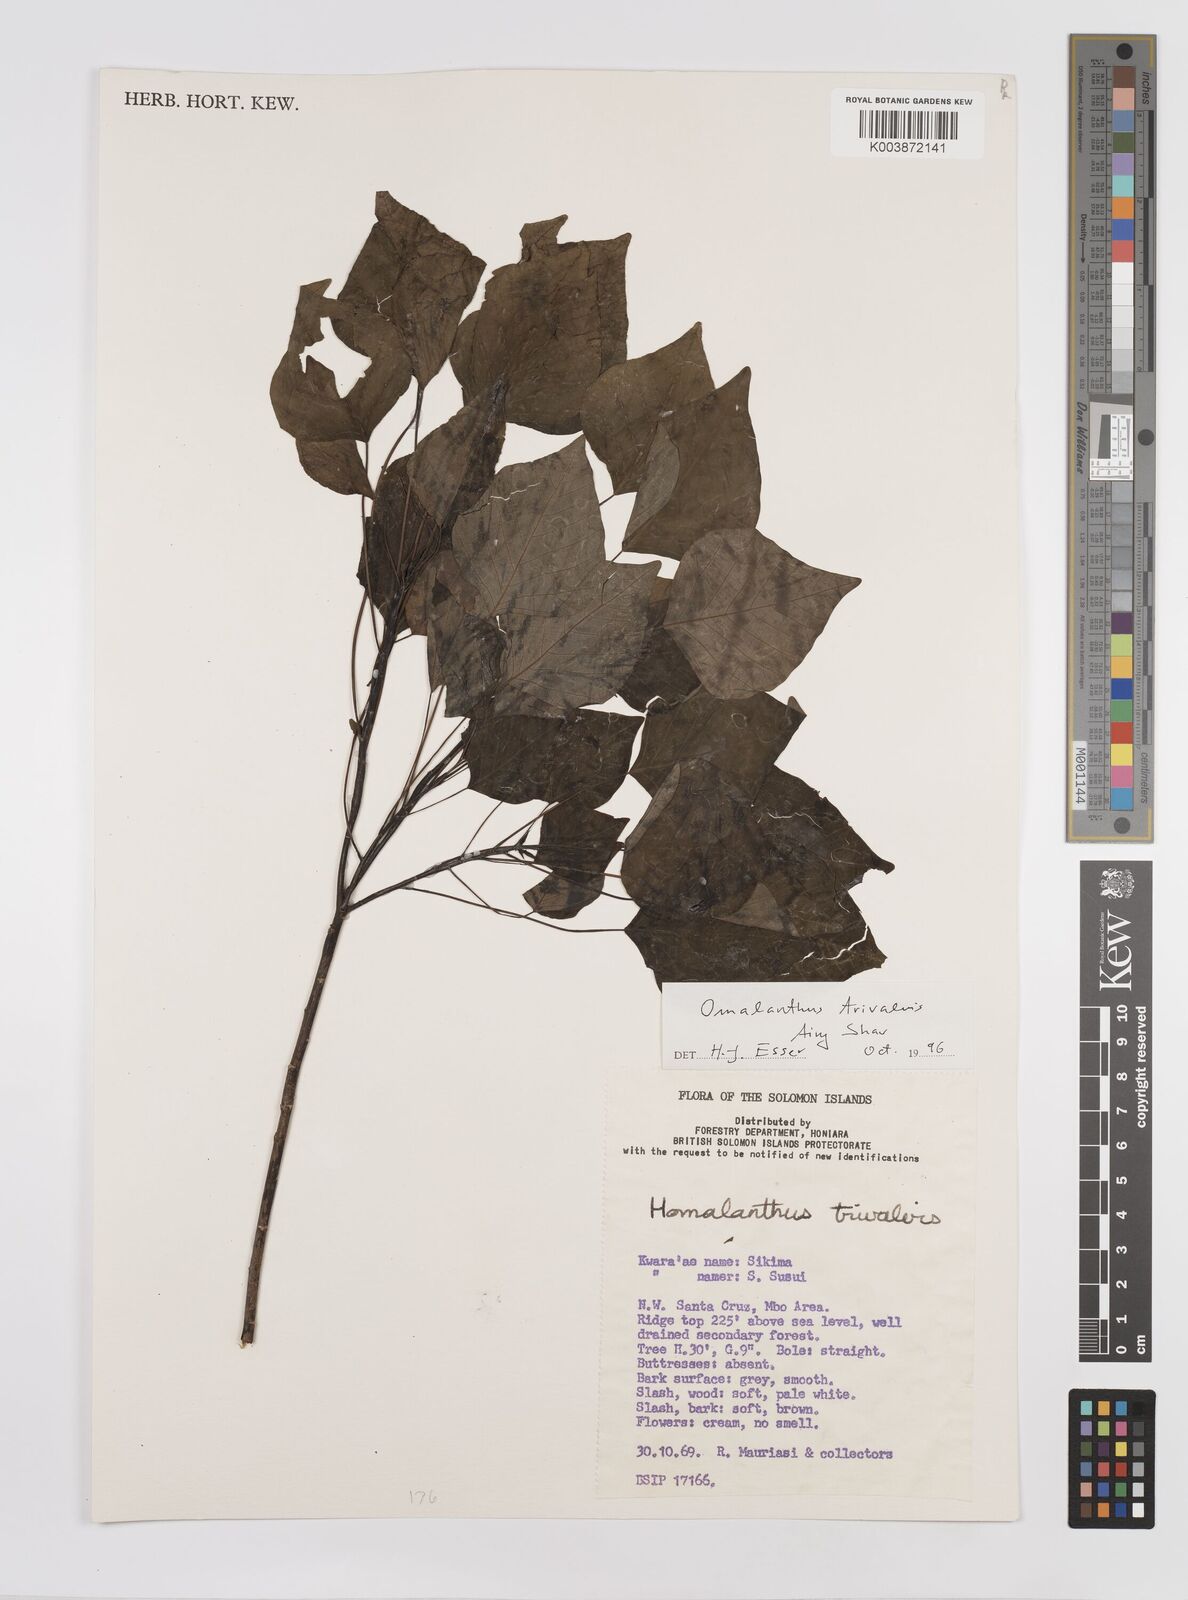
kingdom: Plantae
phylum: Tracheophyta
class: Magnoliopsida
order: Malpighiales
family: Euphorbiaceae
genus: Homalanthus
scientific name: Homalanthus trivalvis
